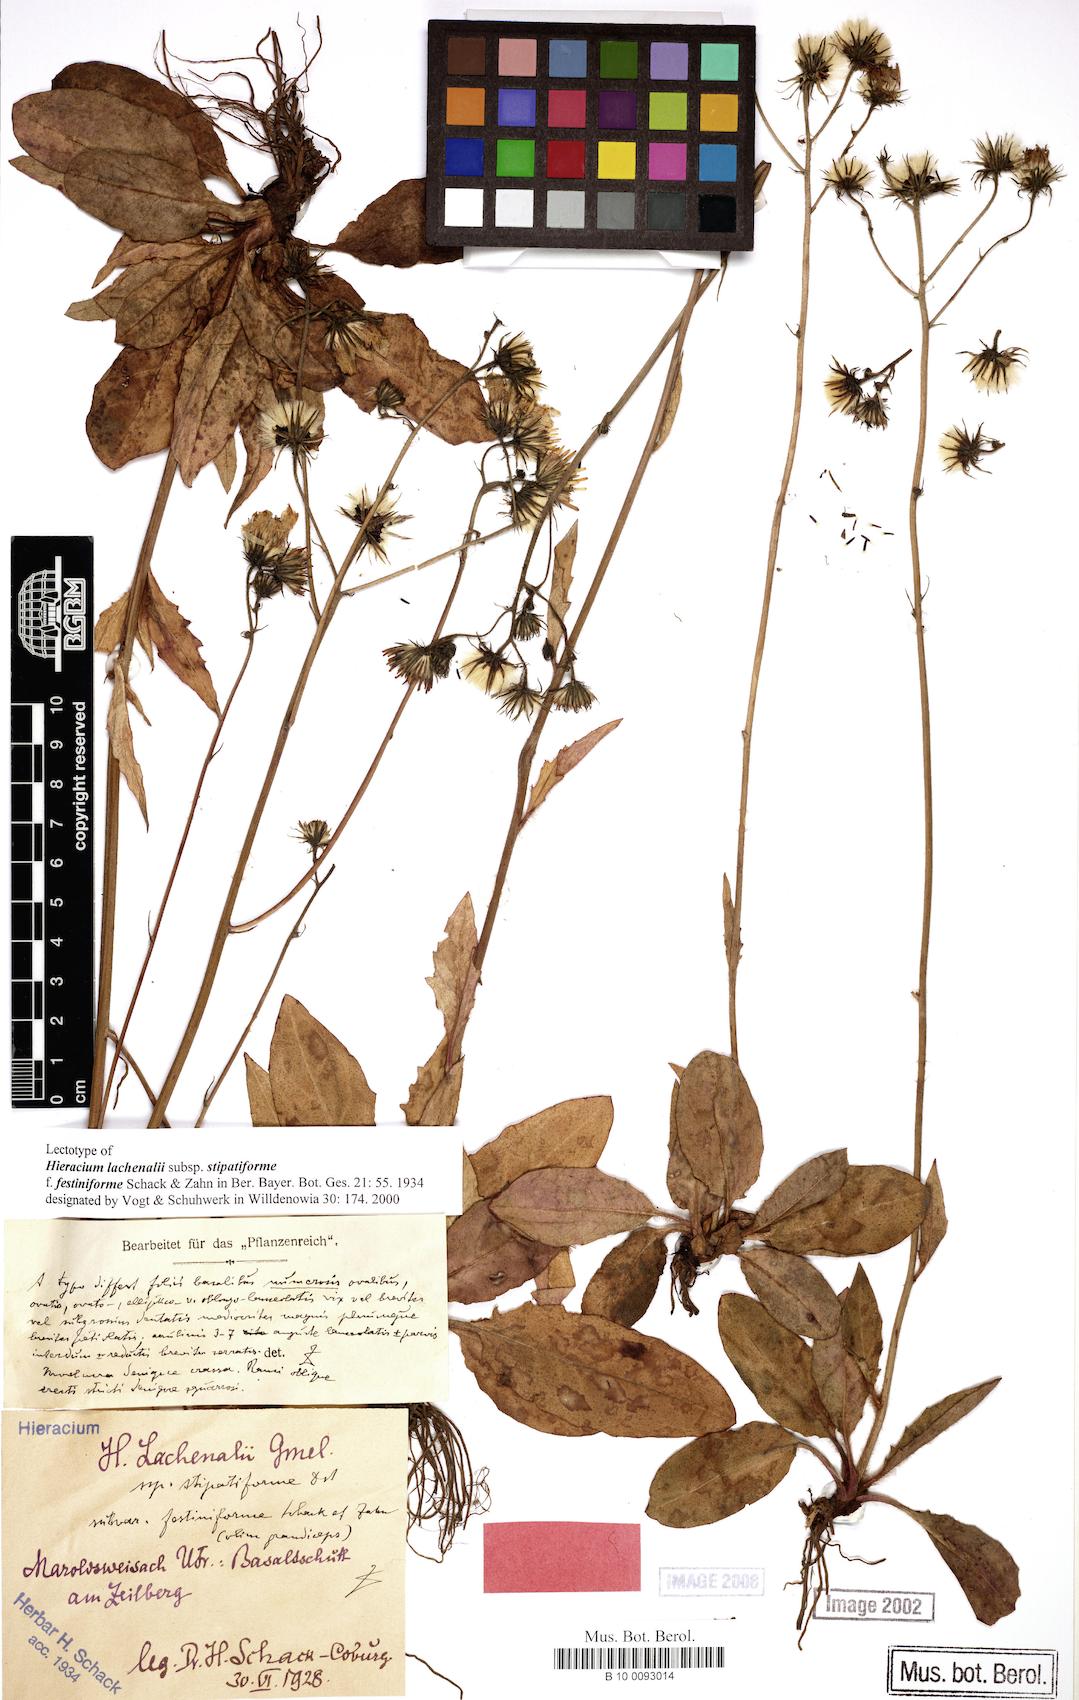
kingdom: Plantae
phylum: Tracheophyta
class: Magnoliopsida
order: Asterales
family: Asteraceae
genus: Hieracium
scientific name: Hieracium lachenalii
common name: Common hawkweed
